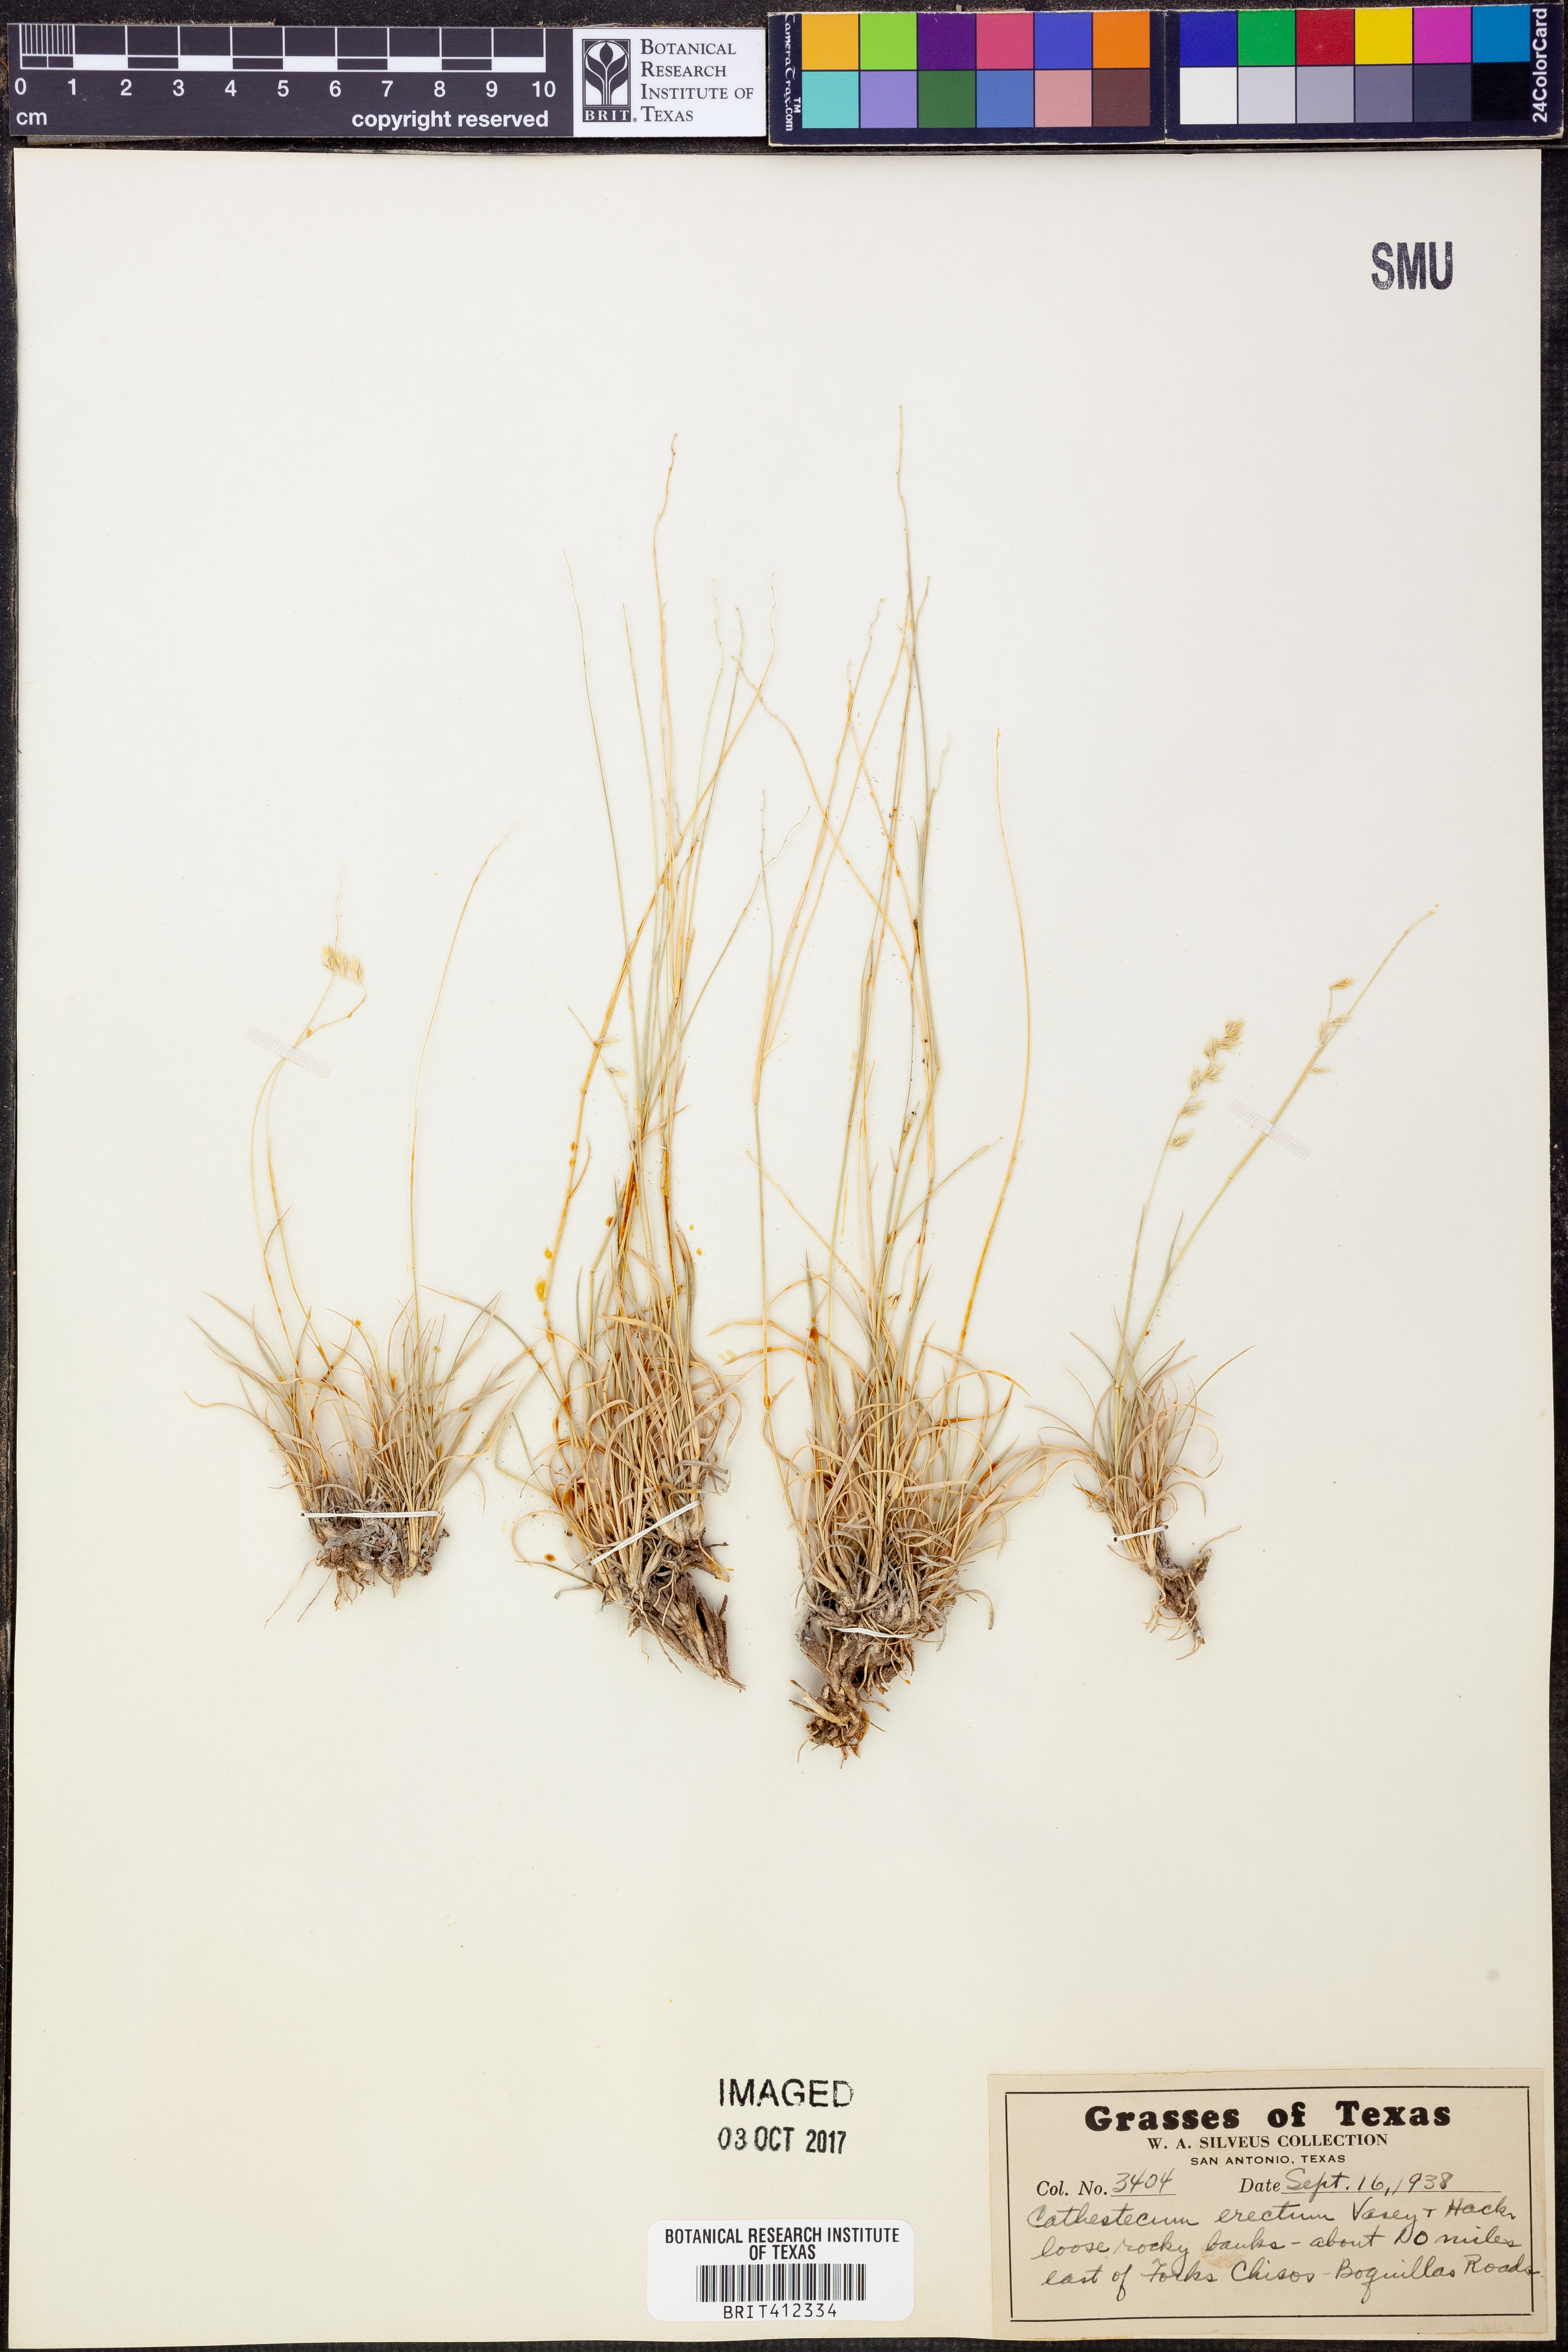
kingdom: Plantae
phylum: Tracheophyta
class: Liliopsida
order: Poales
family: Poaceae
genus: Bouteloua
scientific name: Bouteloua erecta
